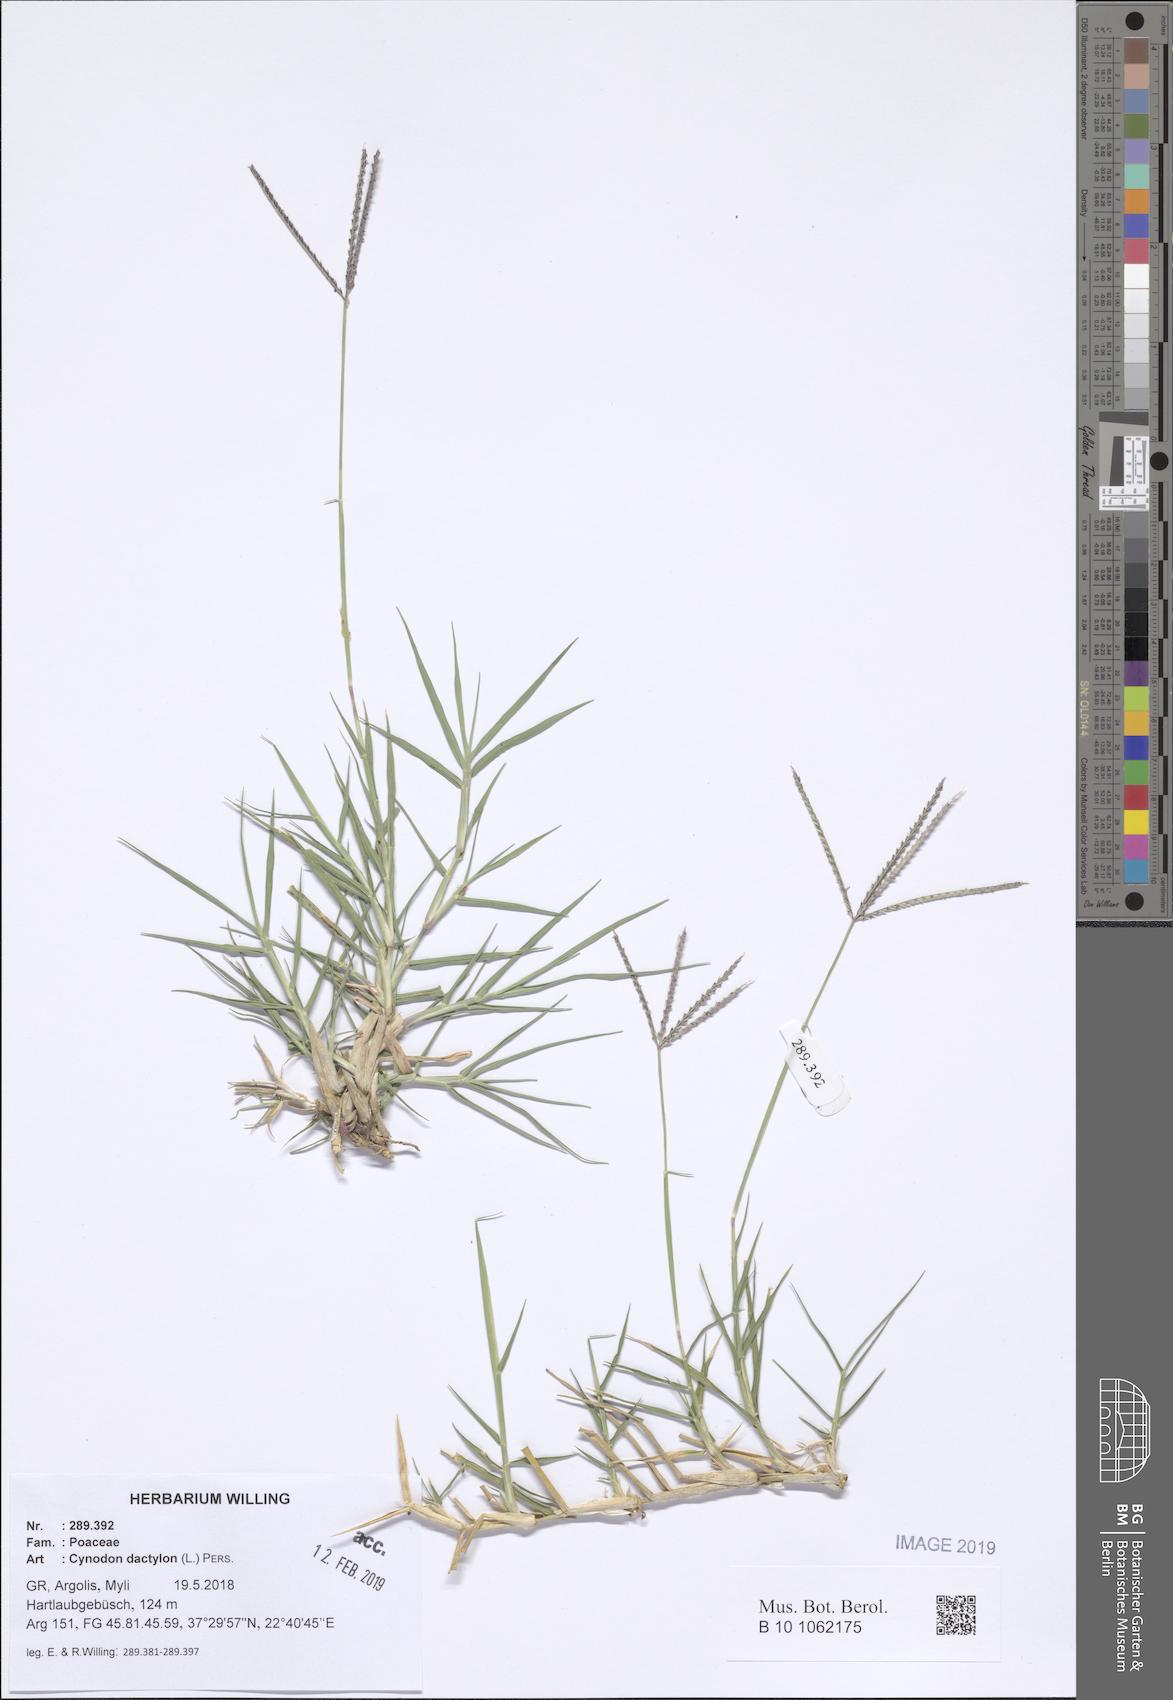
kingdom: Plantae
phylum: Tracheophyta
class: Liliopsida
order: Poales
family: Poaceae
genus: Cynodon
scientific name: Cynodon dactylon
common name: Bermuda grass
